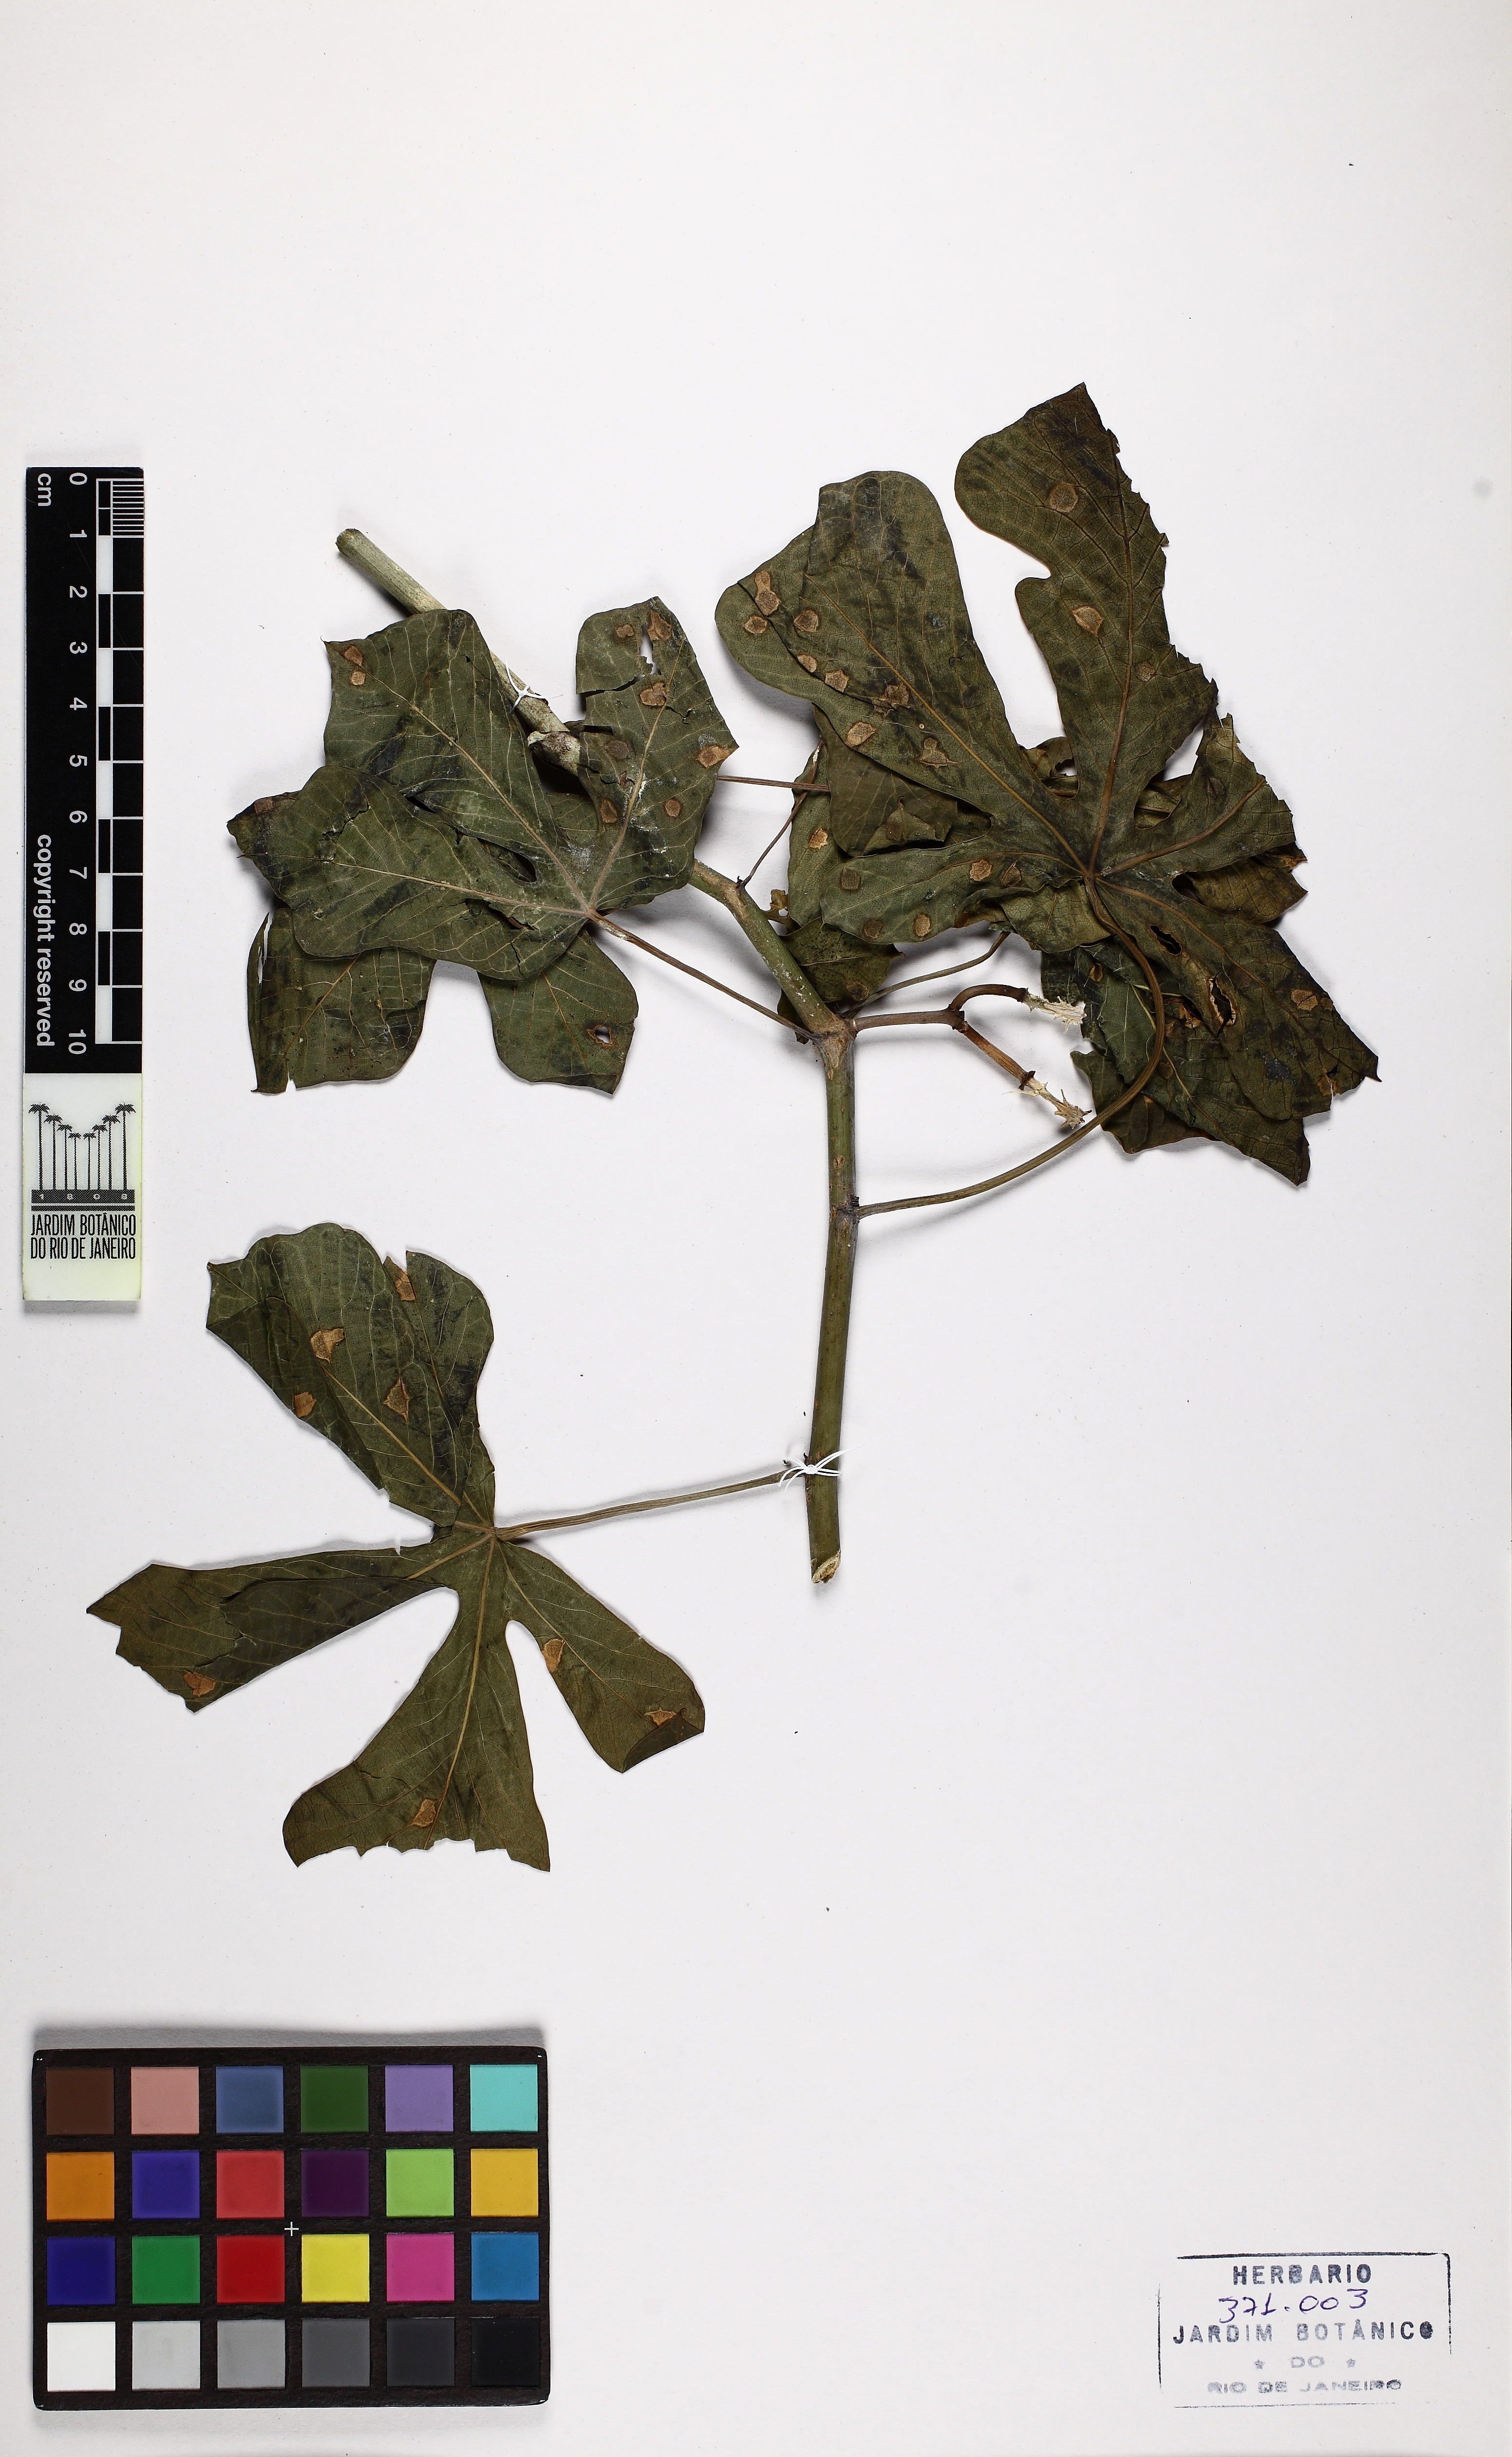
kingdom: Plantae
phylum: Tracheophyta
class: Magnoliopsida
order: Malpighiales
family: Euphorbiaceae
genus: Manihot
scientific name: Manihot carthaginensis
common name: Ceara rubbertree
